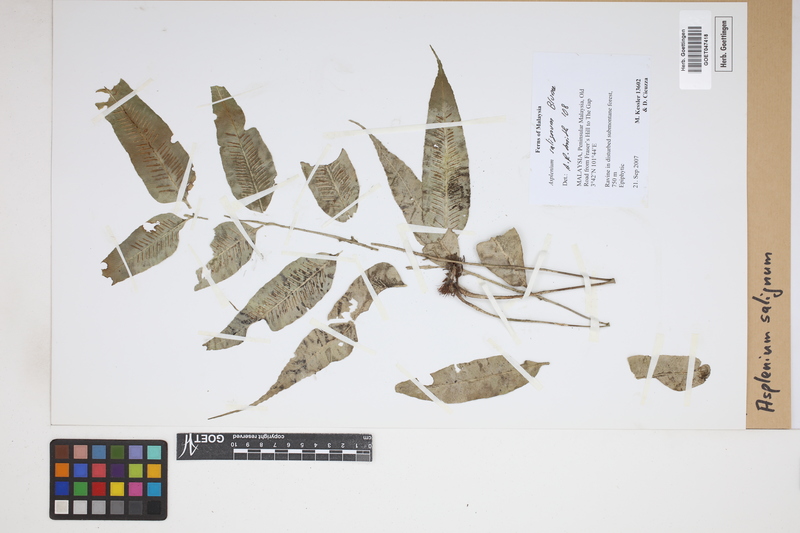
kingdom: Plantae
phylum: Tracheophyta
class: Polypodiopsida
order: Polypodiales
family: Aspleniaceae
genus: Asplenium
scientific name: Asplenium salignum
